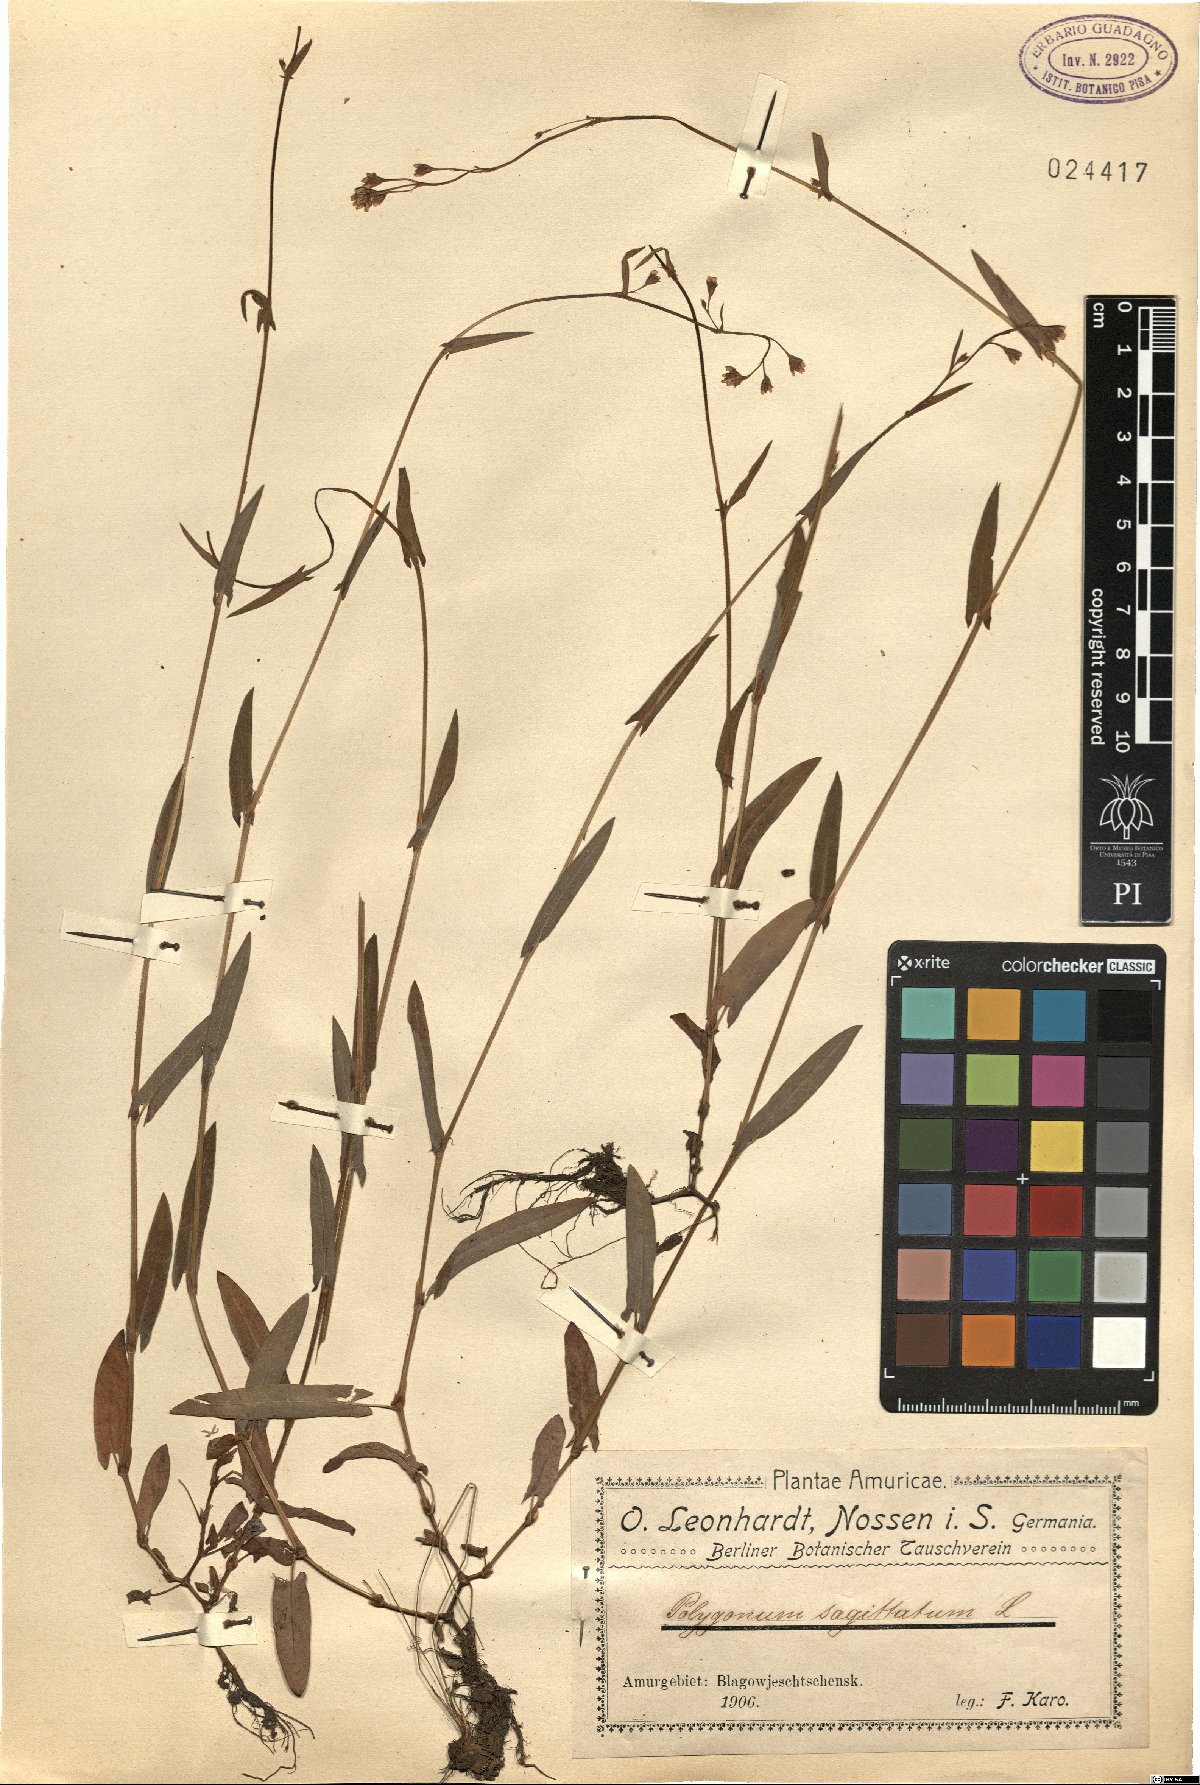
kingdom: Plantae
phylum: Tracheophyta
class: Magnoliopsida
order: Caryophyllales
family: Polygonaceae
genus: Persicaria
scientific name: Persicaria sagittata
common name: American tearthumb
